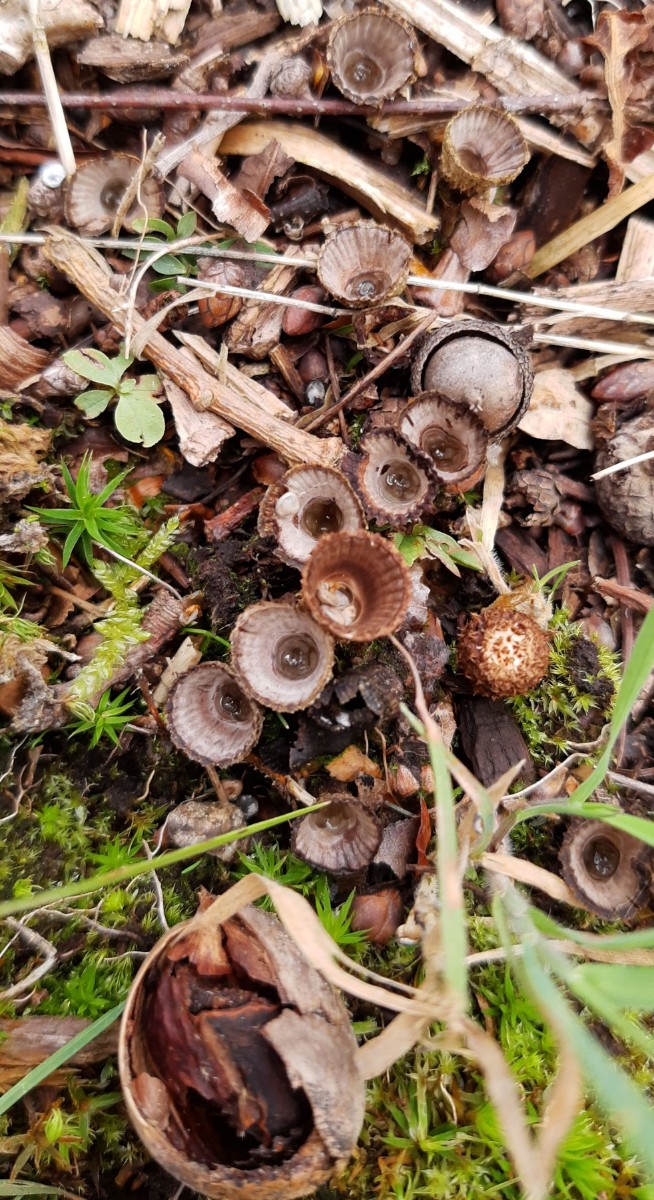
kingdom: Fungi
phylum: Basidiomycota
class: Agaricomycetes
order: Agaricales
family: Agaricaceae
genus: Cyathus
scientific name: Cyathus striatus
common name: stribet redesvamp
